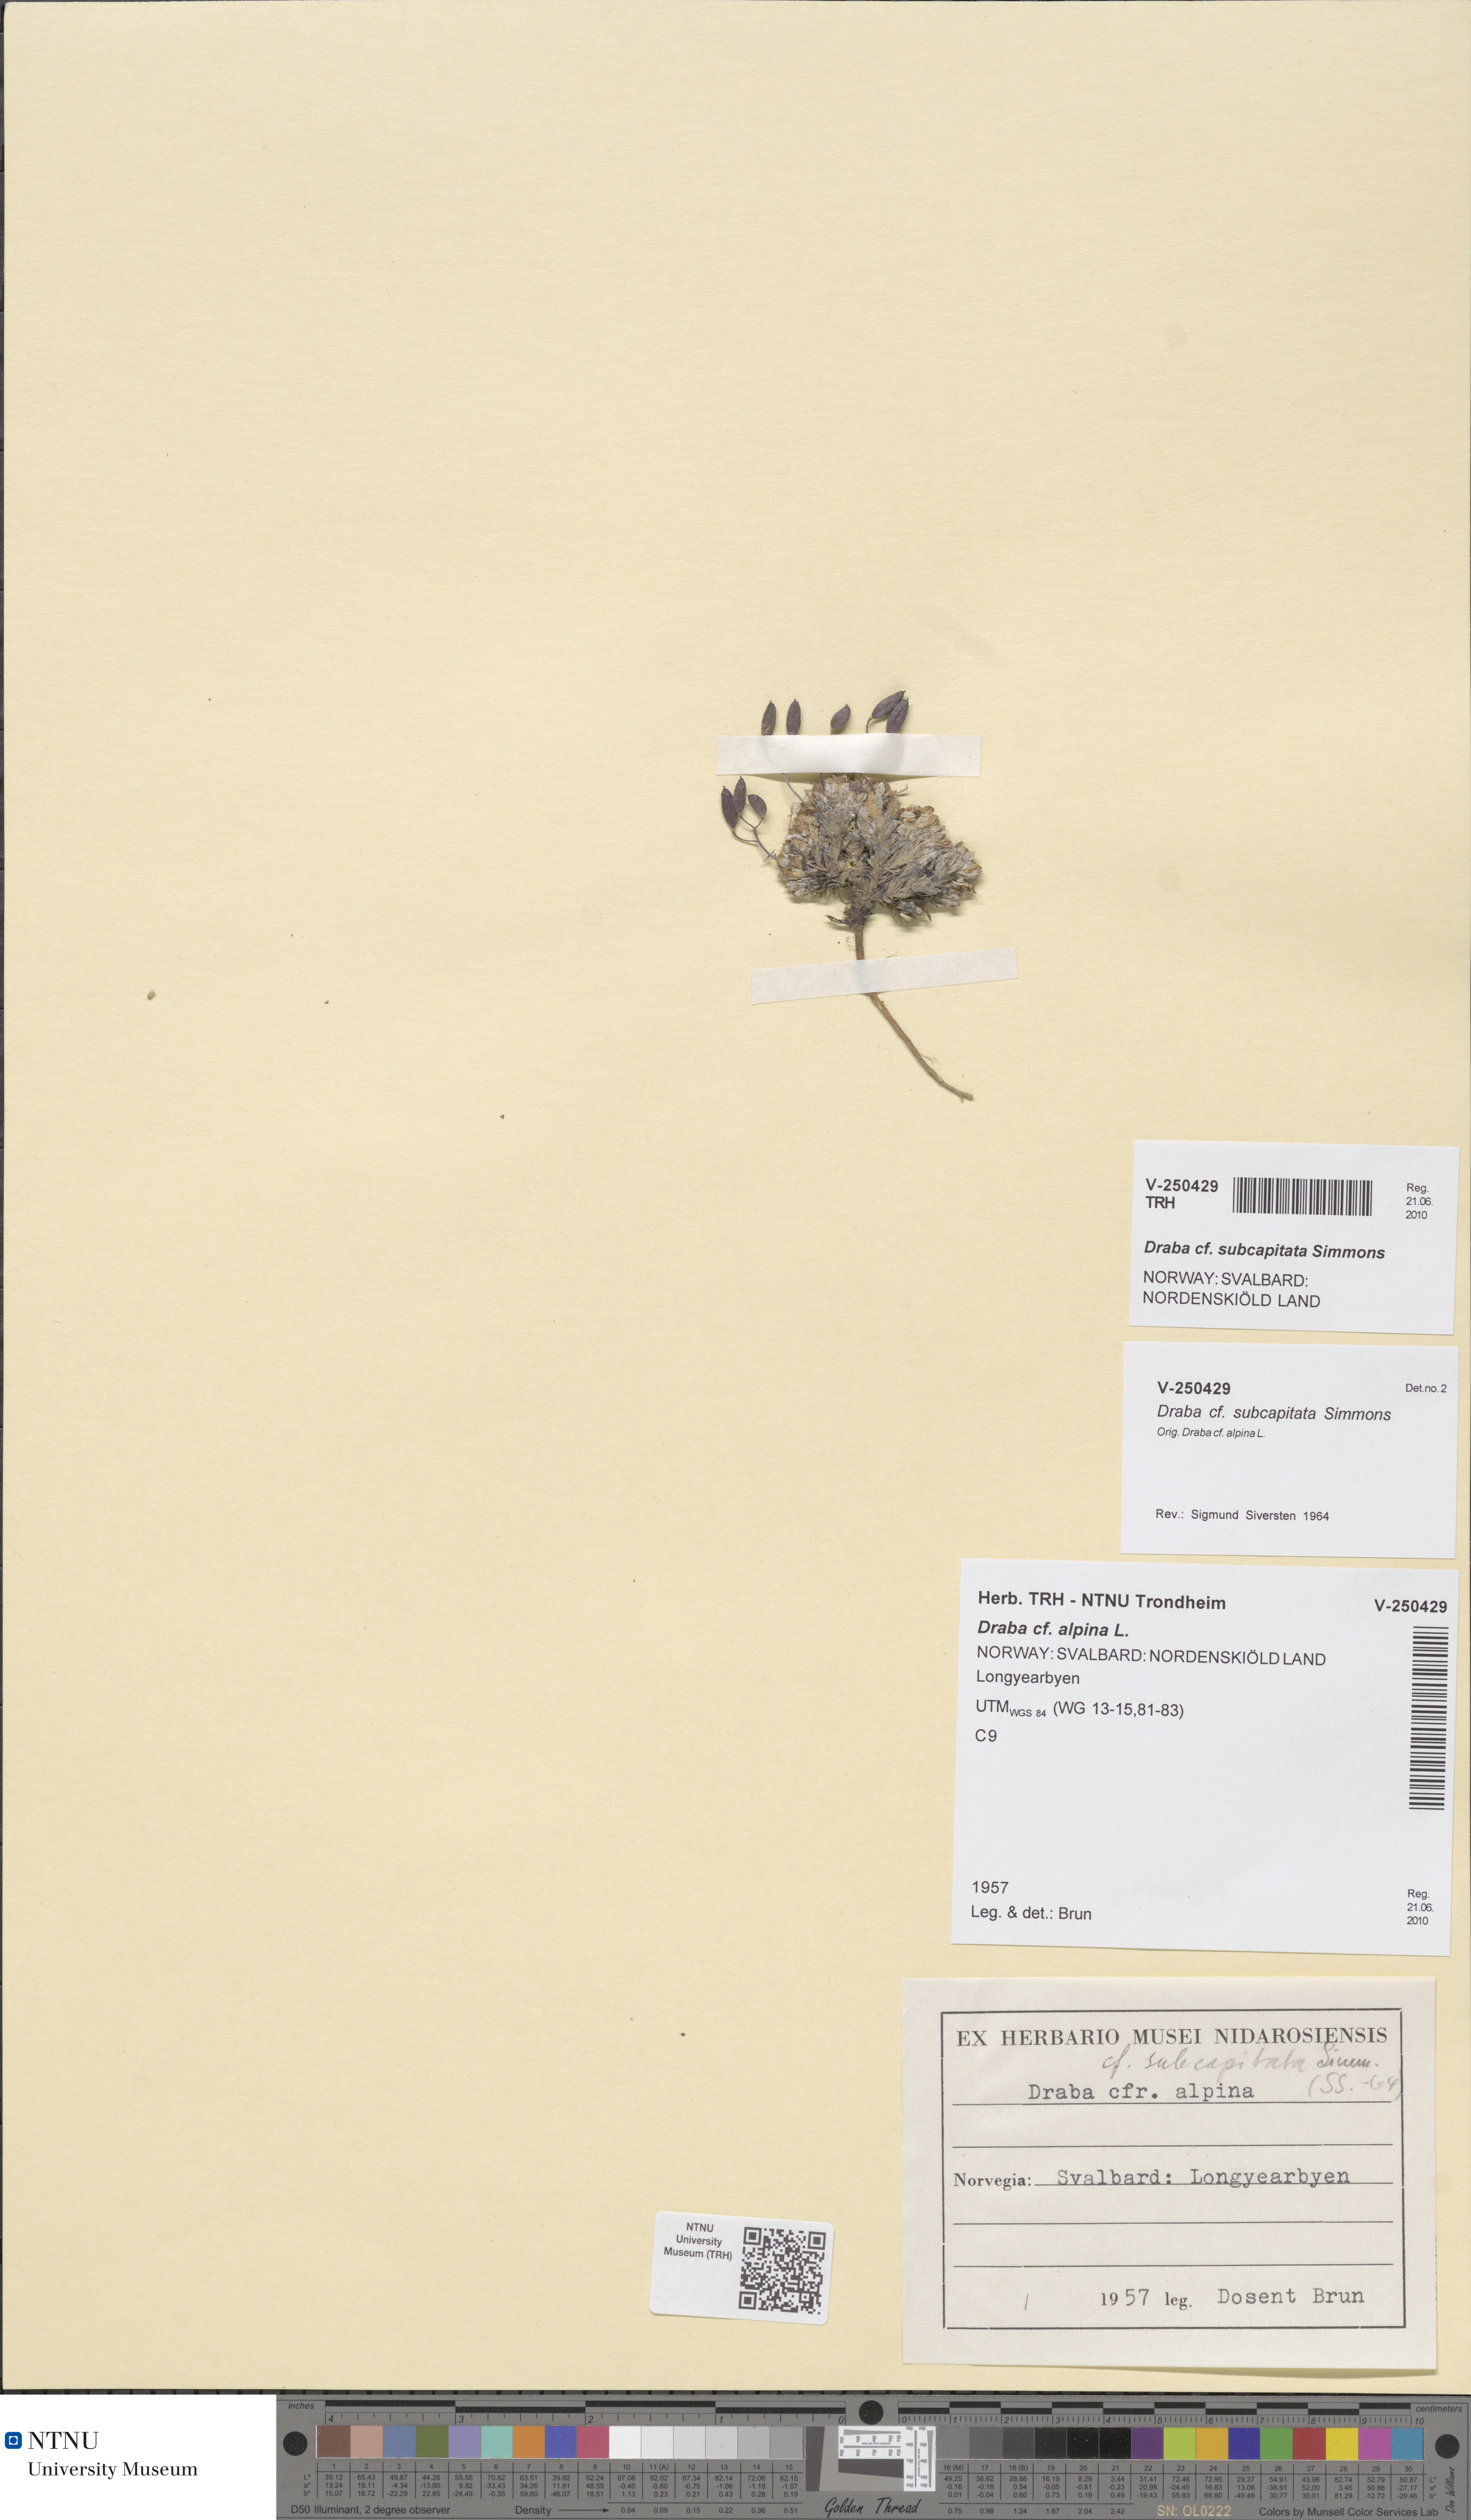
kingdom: Plantae
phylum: Tracheophyta
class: Magnoliopsida
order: Brassicales
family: Brassicaceae
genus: Draba
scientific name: Draba subcapitata
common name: Ellesmere island draba
